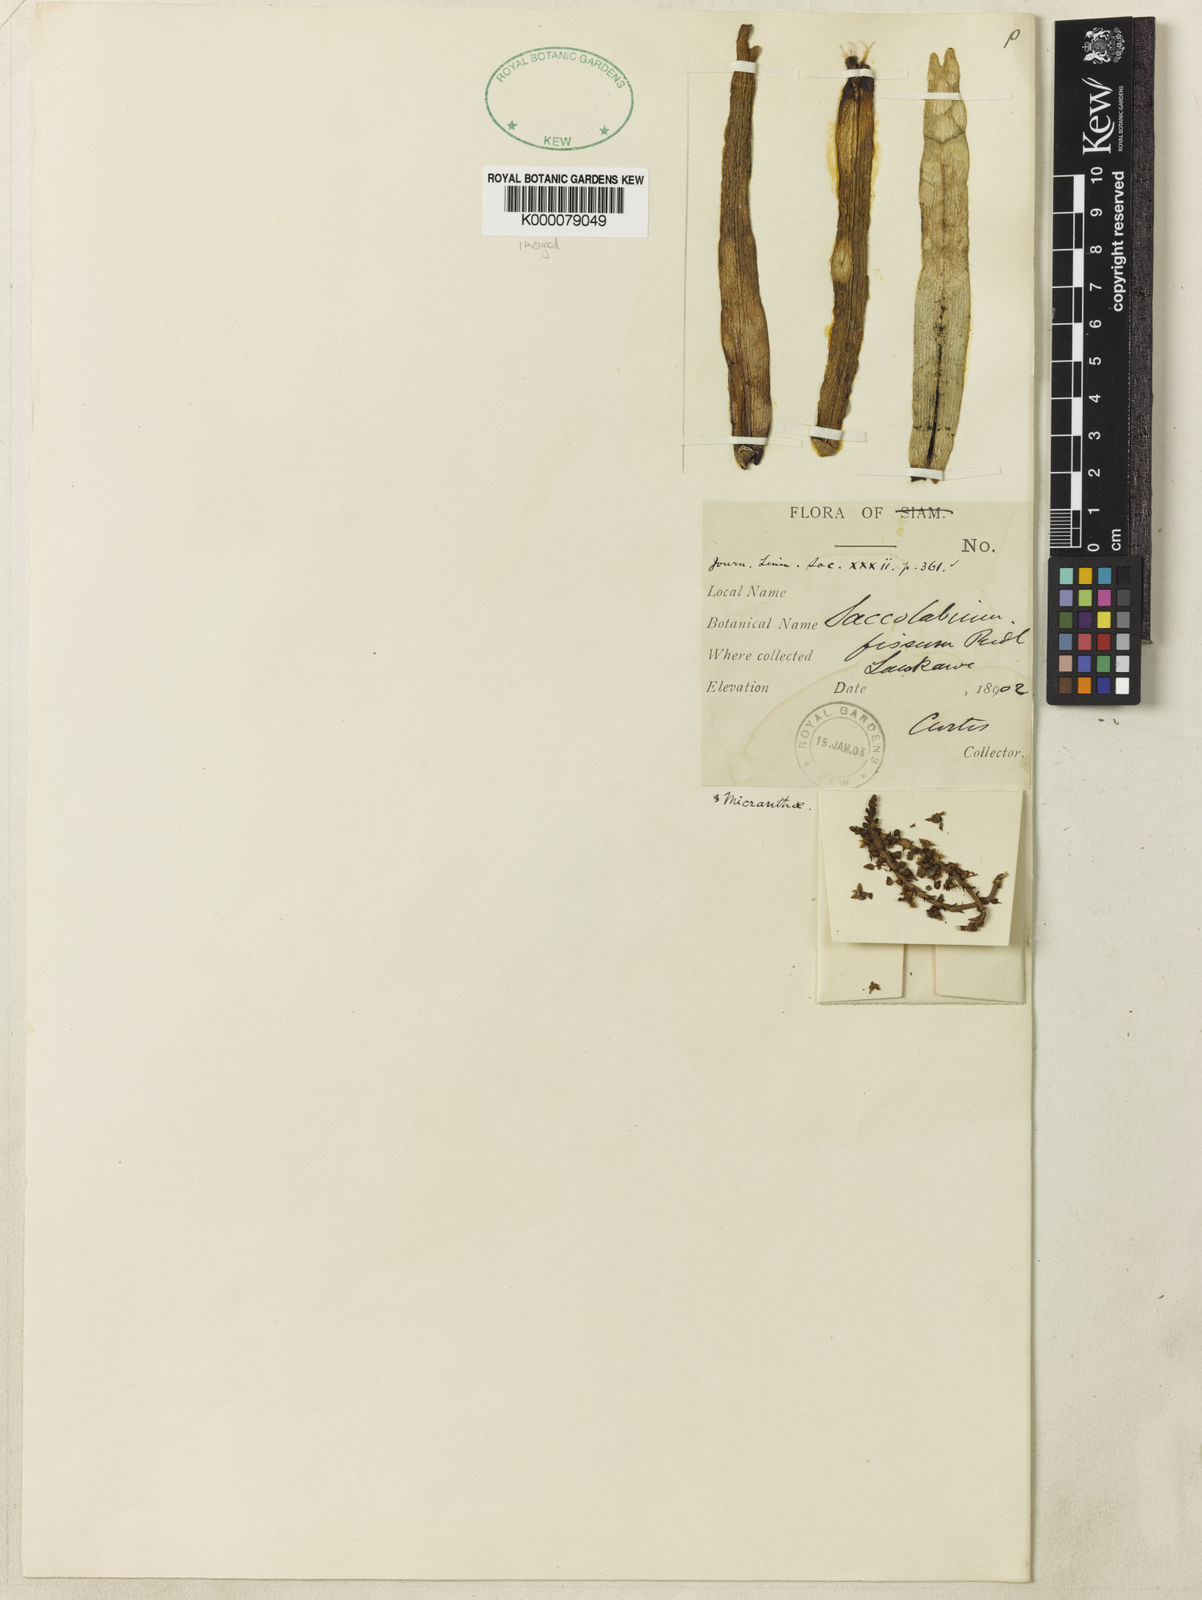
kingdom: Plantae
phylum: Tracheophyta
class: Liliopsida
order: Asparagales
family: Orchidaceae
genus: Smitinandia
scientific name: Smitinandia micrantha
